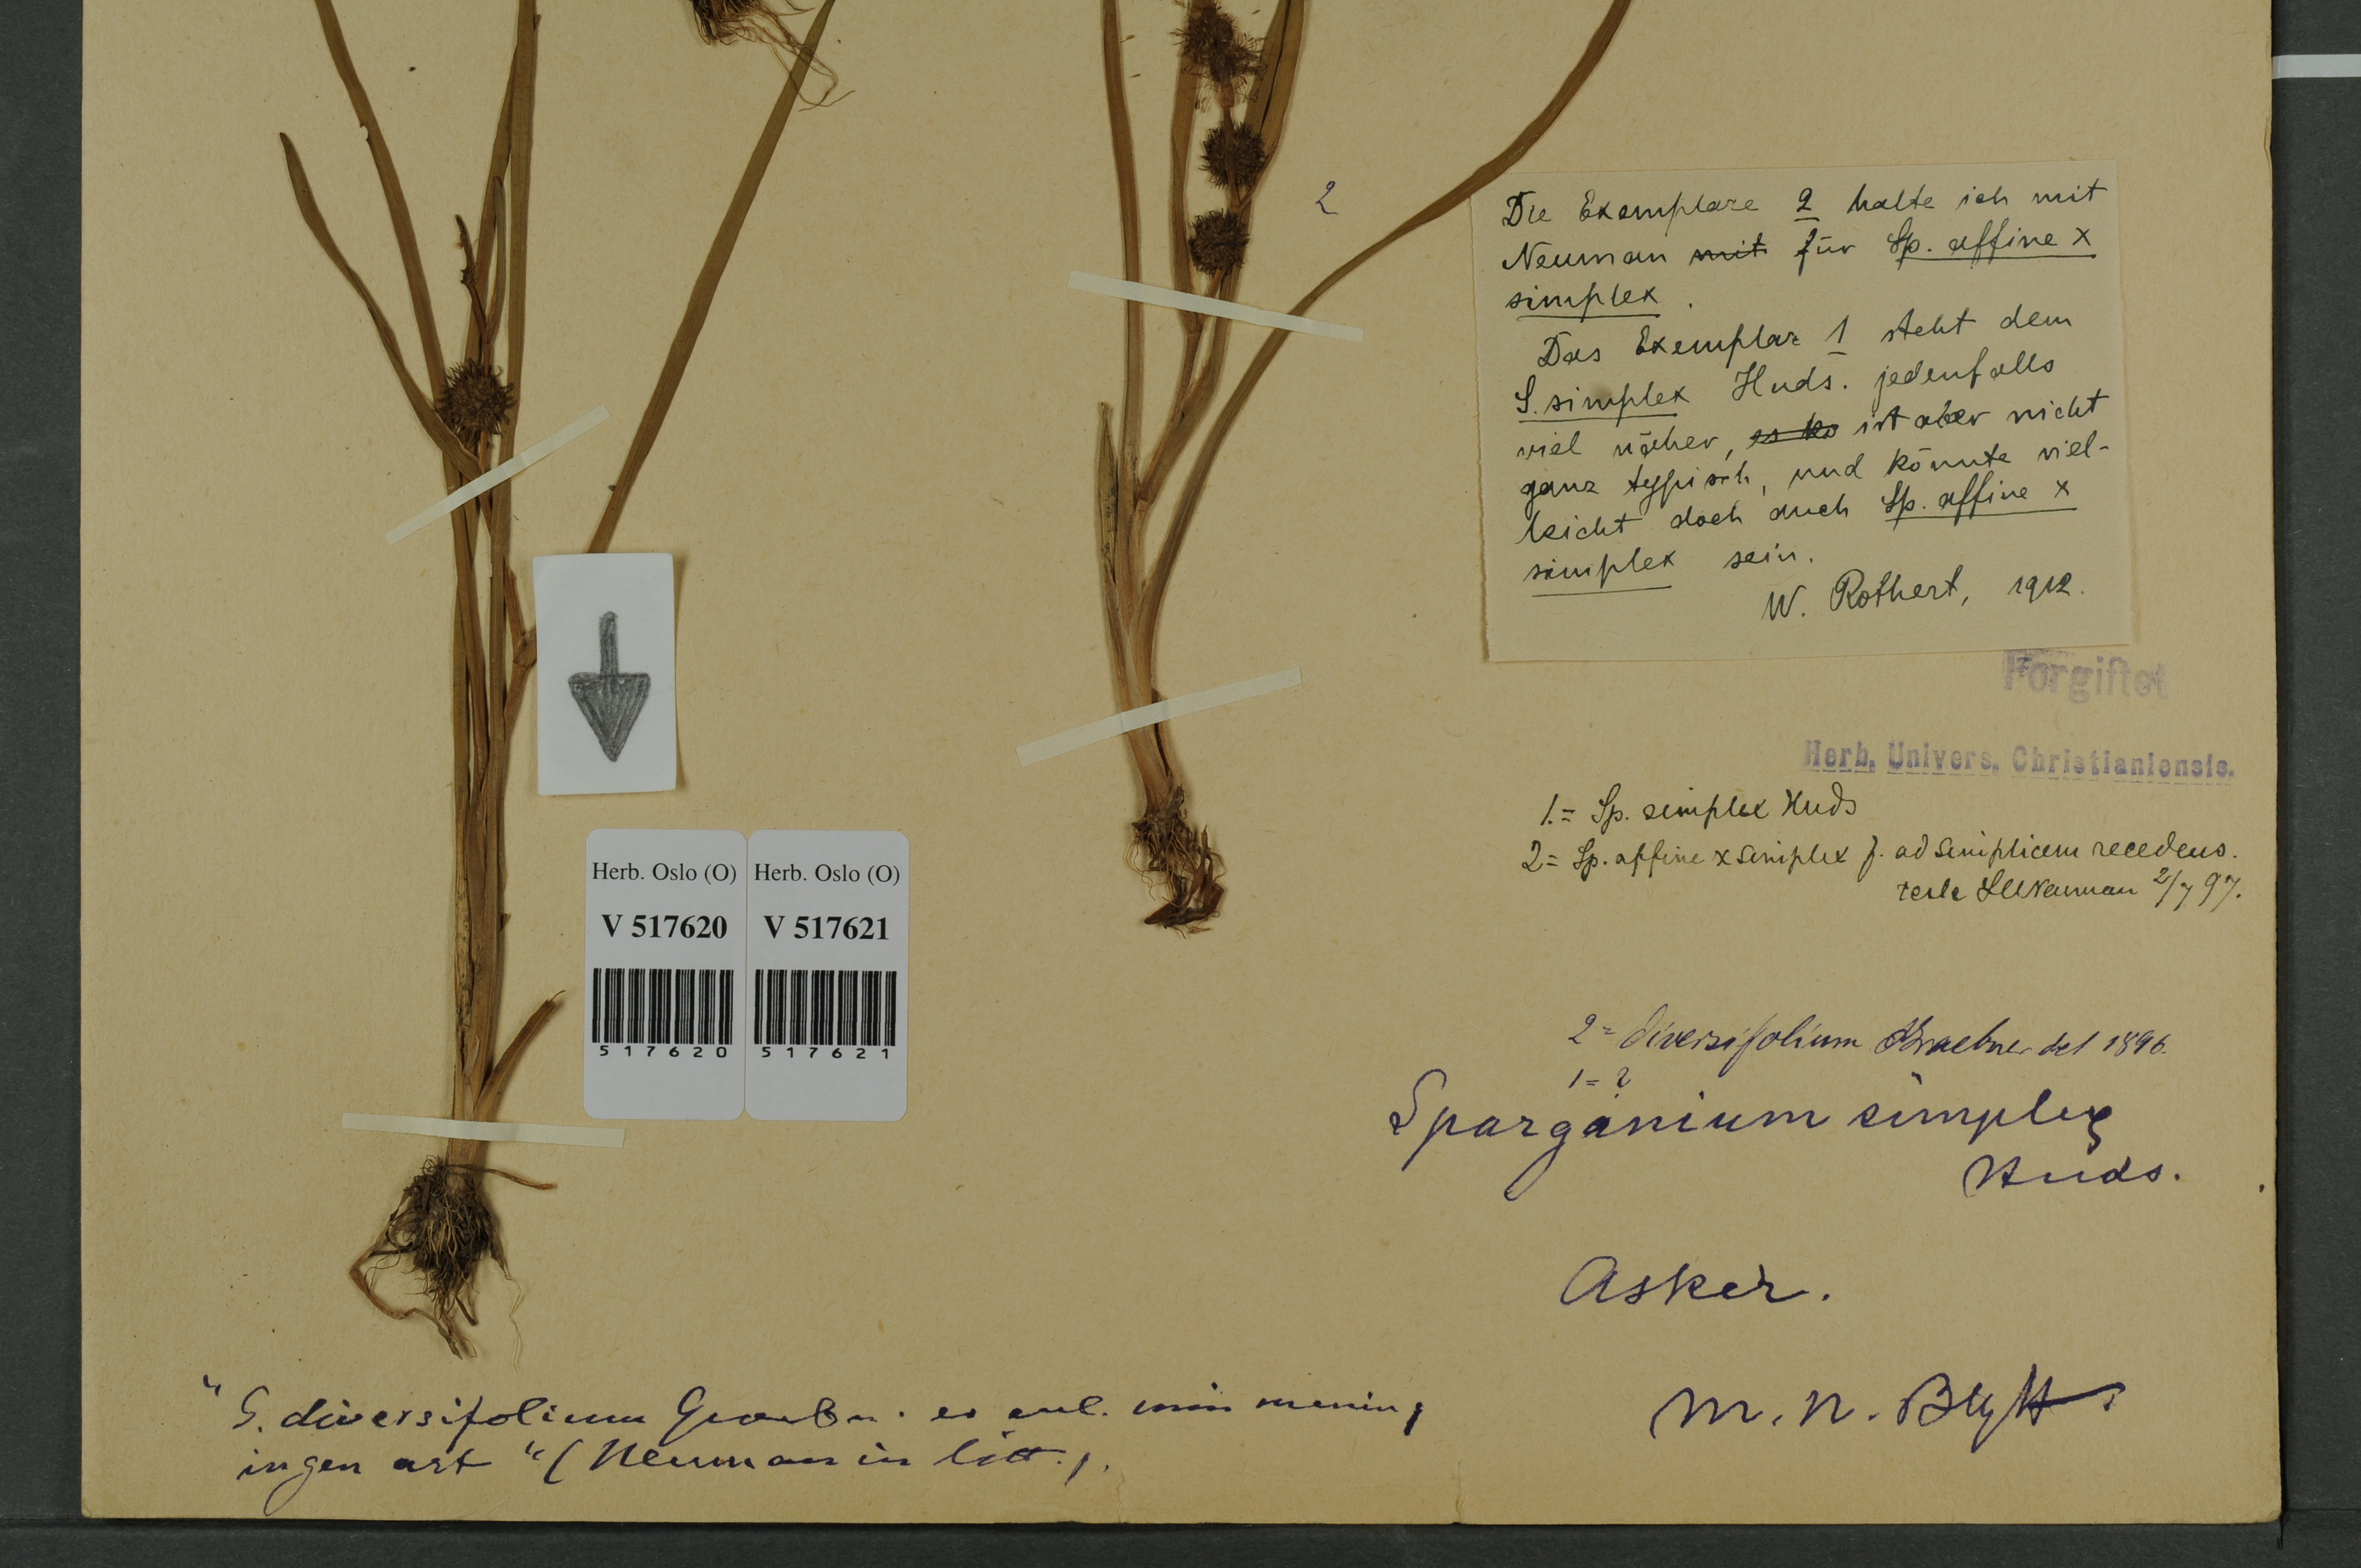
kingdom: Plantae
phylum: Tracheophyta
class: Liliopsida
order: Poales
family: Typhaceae
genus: Sparganium
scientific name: Sparganium
